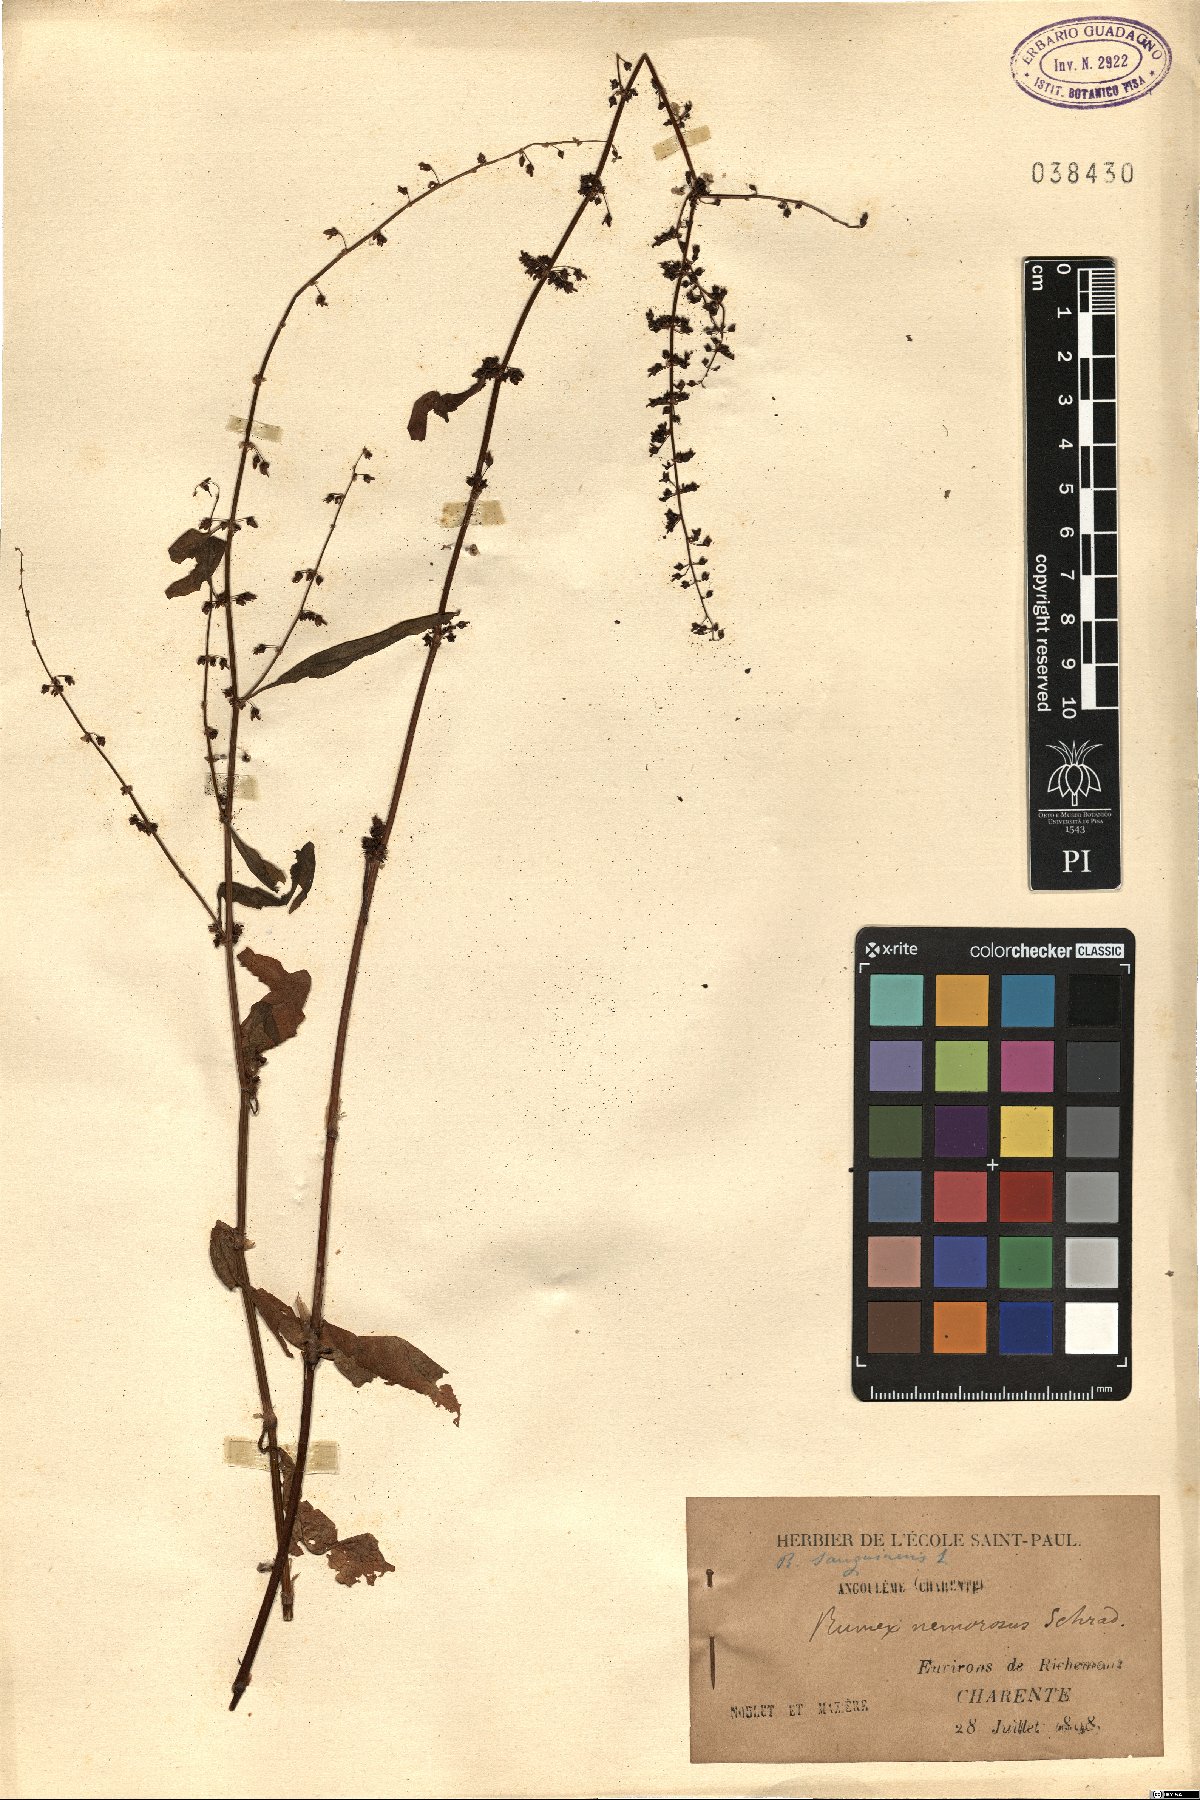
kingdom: Plantae
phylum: Tracheophyta
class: Magnoliopsida
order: Caryophyllales
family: Polygonaceae
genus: Rumex
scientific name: Rumex sanguineus
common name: Wood dock
